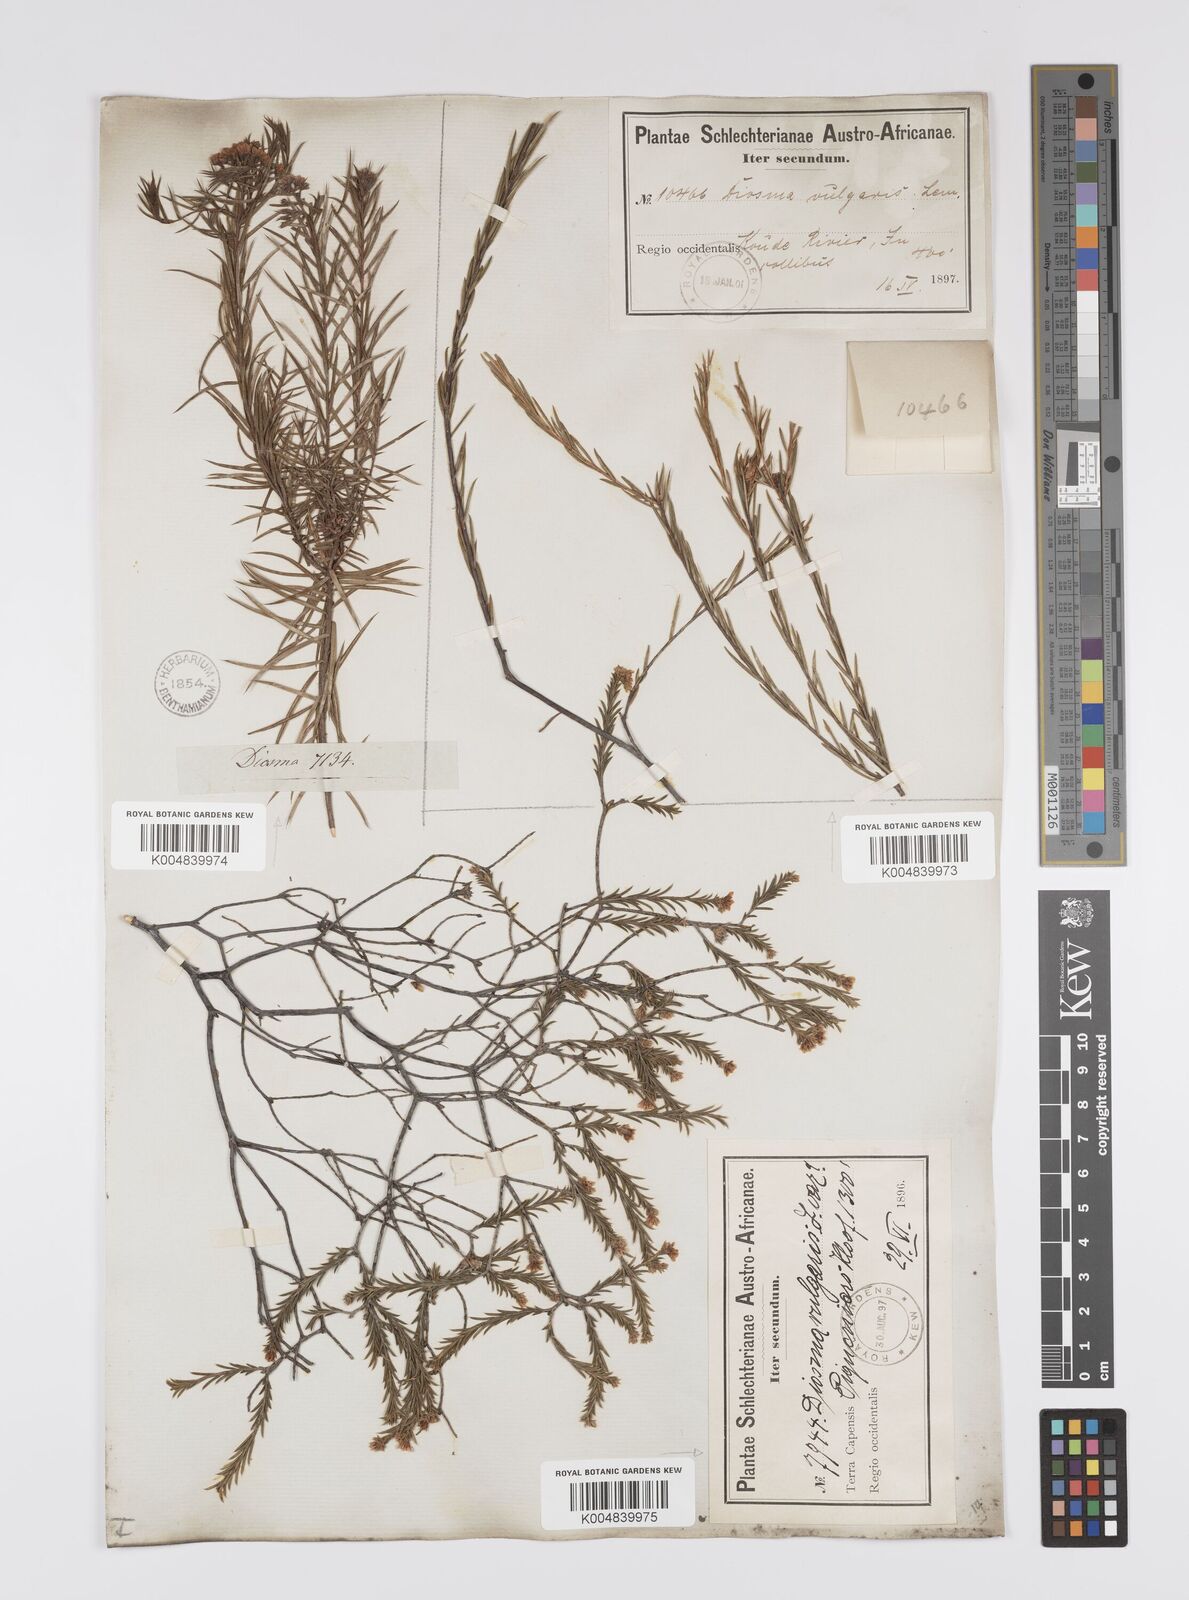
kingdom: Plantae
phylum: Tracheophyta
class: Magnoliopsida
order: Sapindales
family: Rutaceae
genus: Diosma
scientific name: Diosma acmaeophylla
